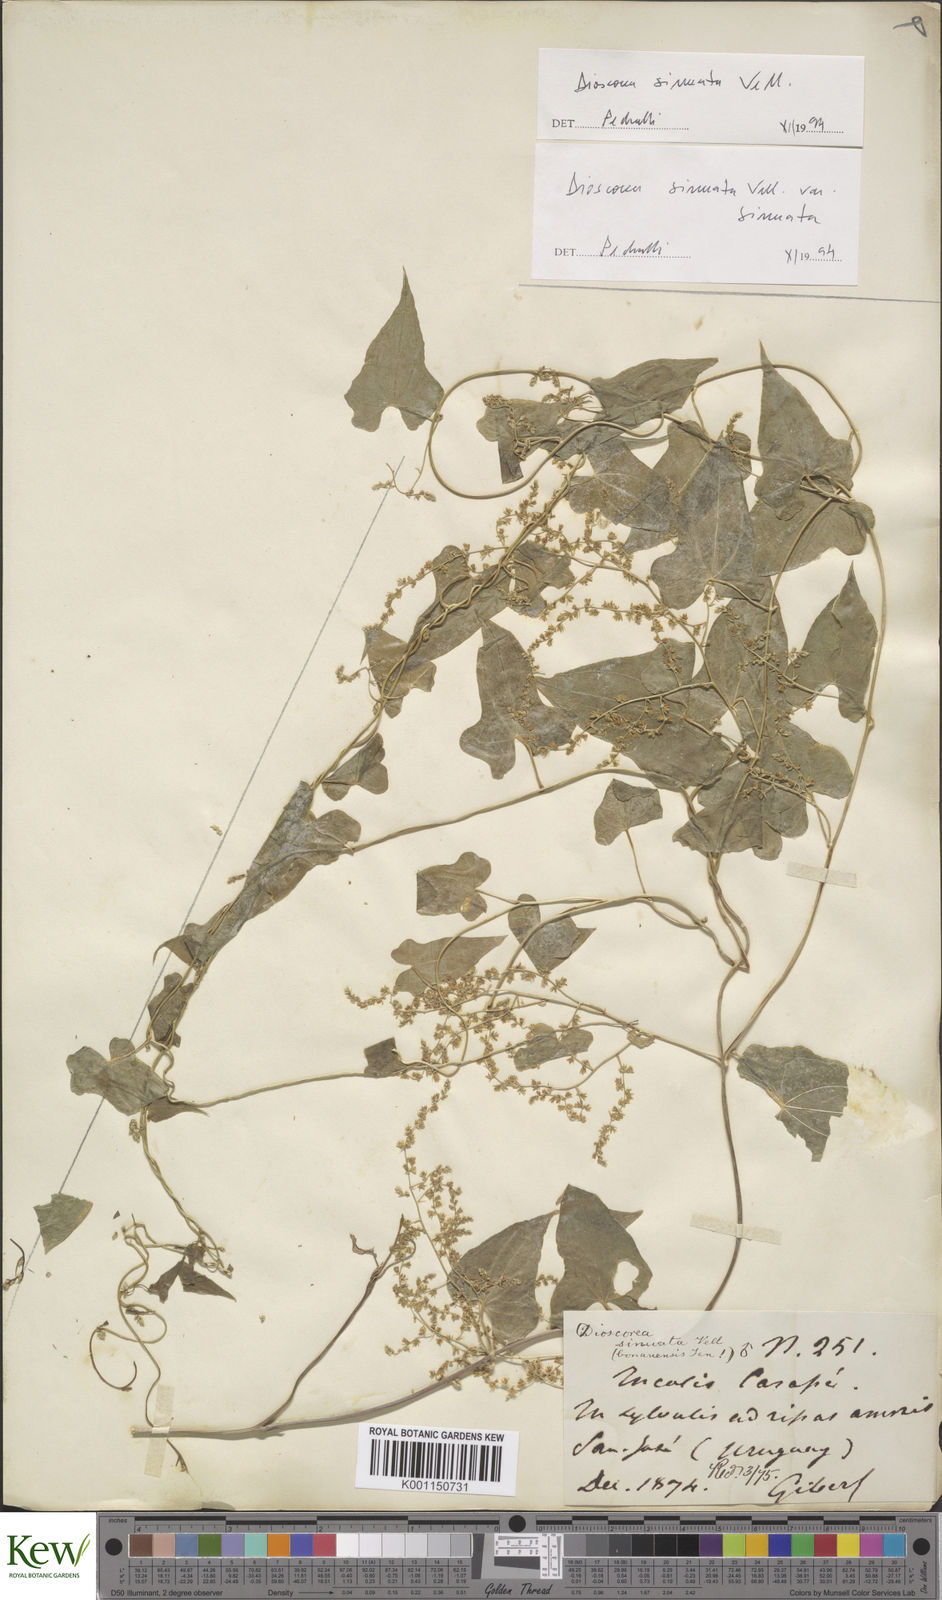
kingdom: Plantae
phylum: Tracheophyta
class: Liliopsida
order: Dioscoreales
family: Dioscoreaceae
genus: Dioscorea
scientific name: Dioscorea sinuata
